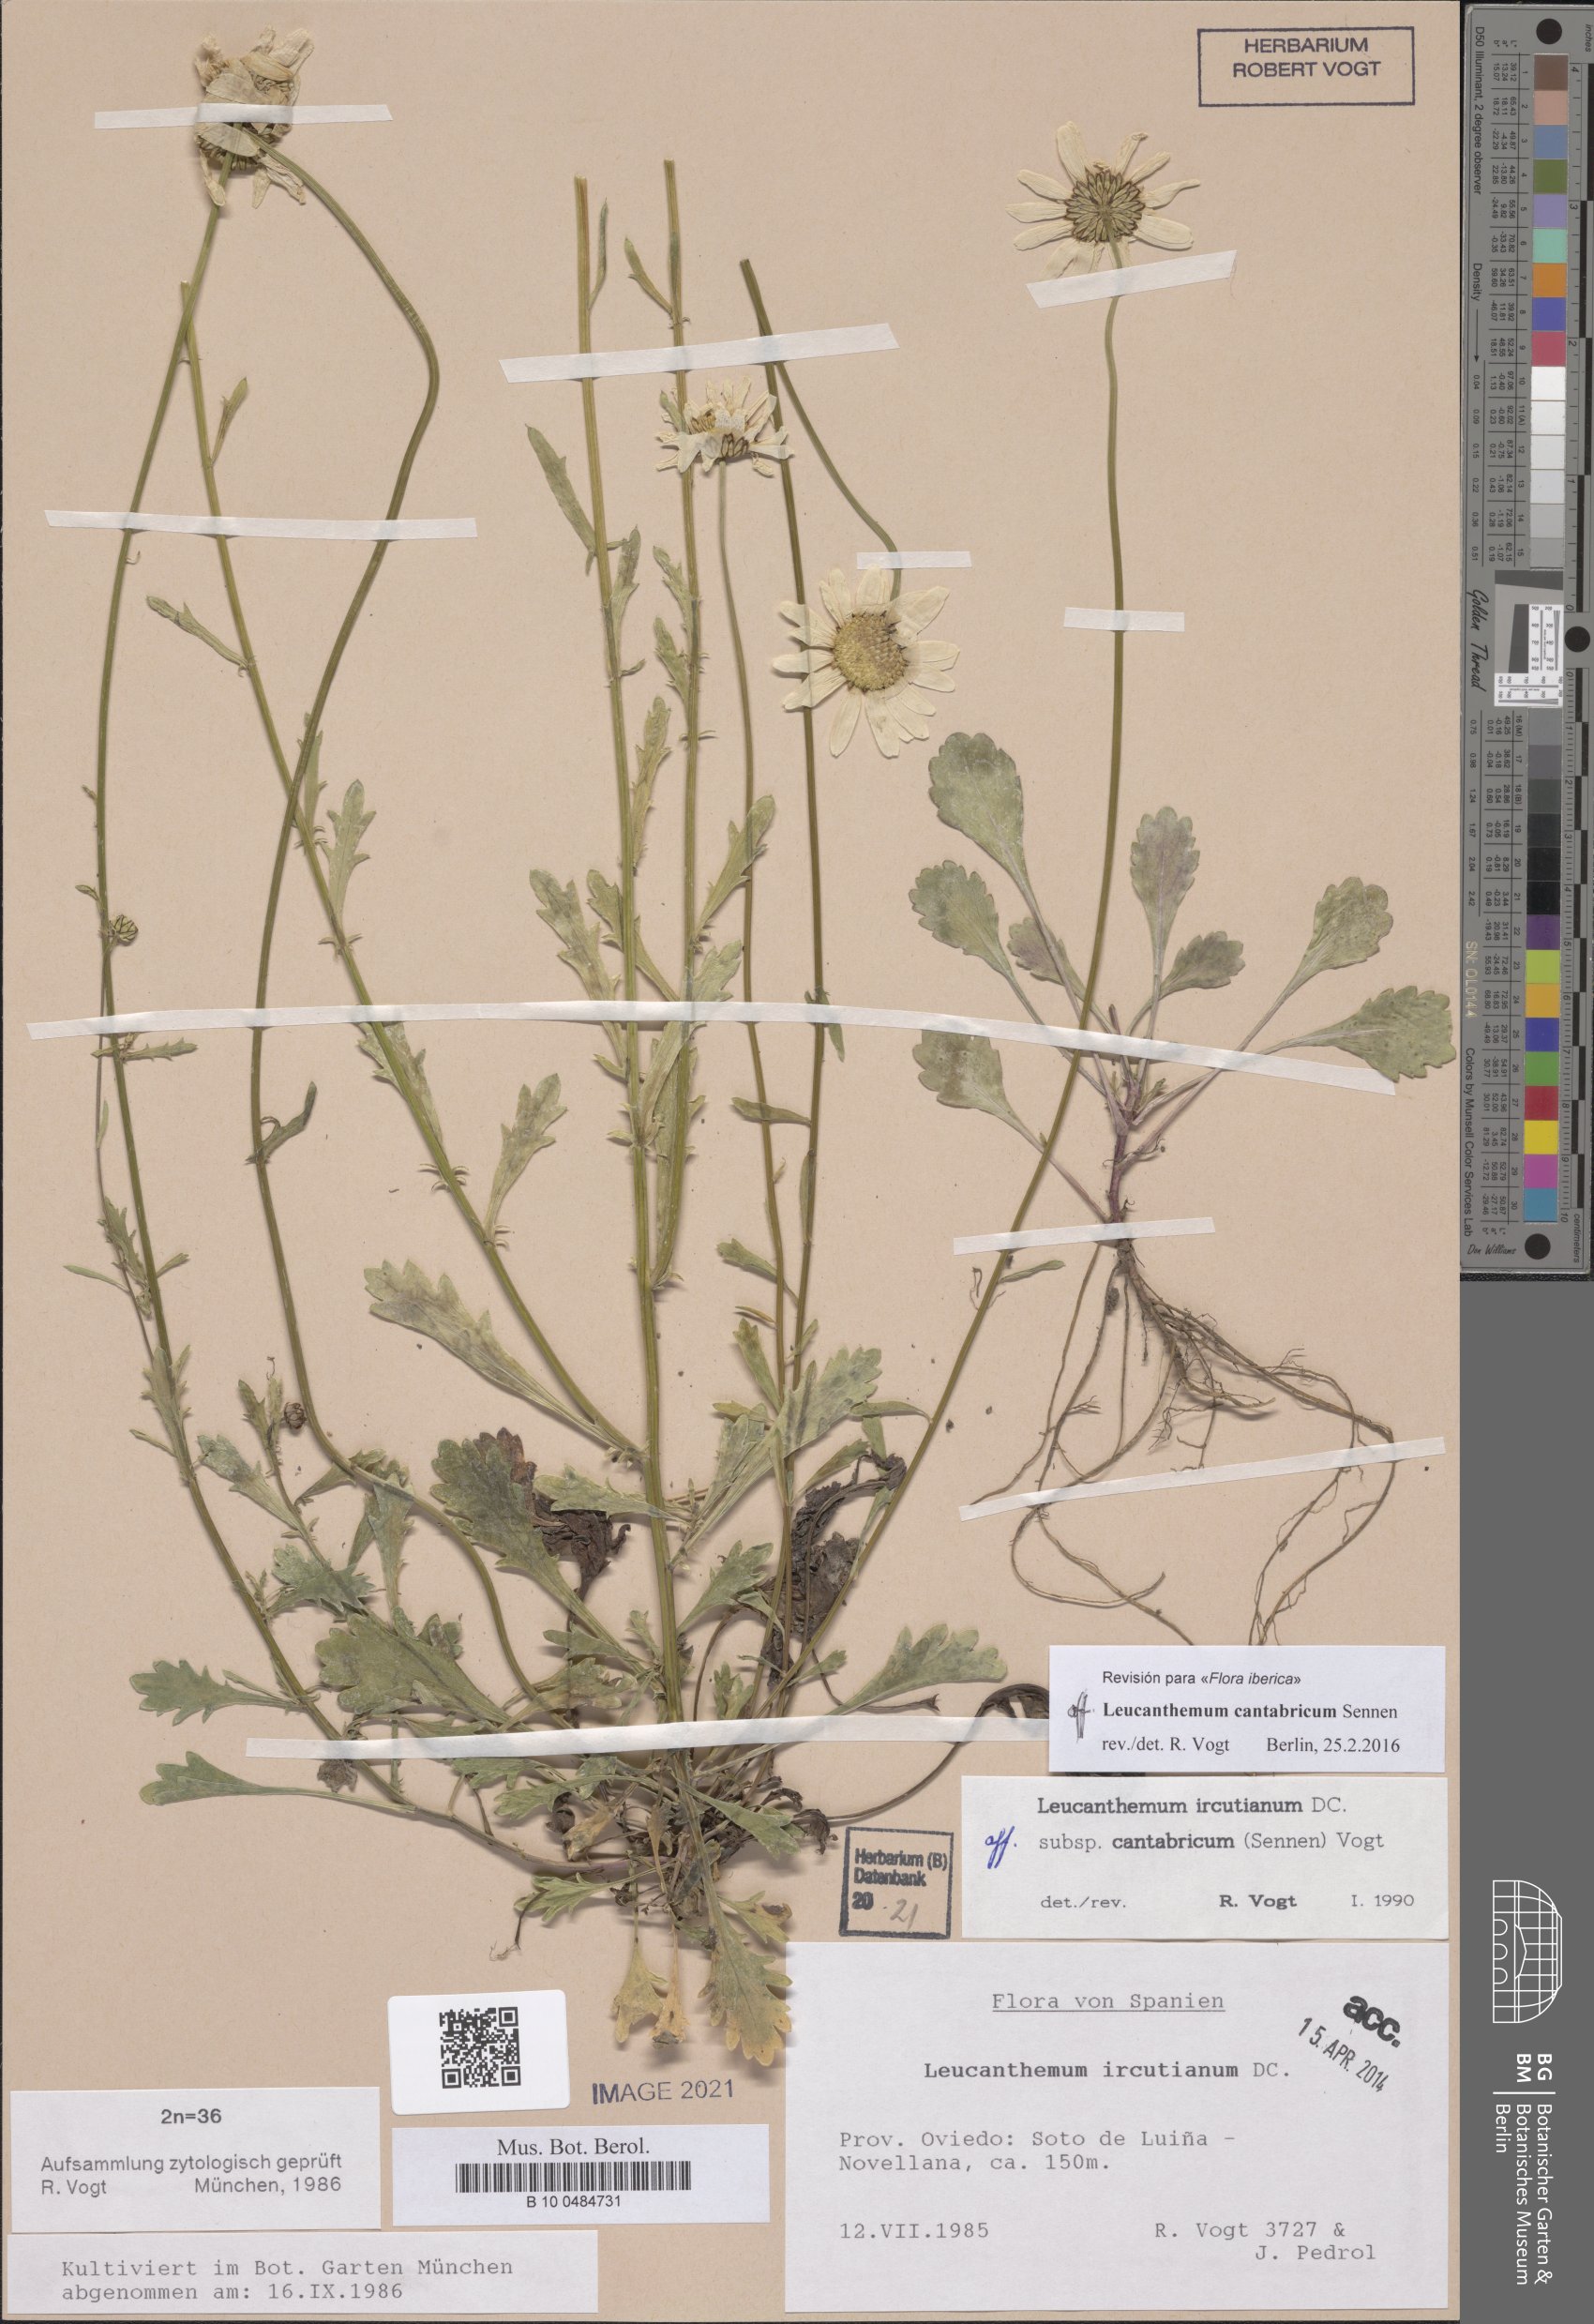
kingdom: Plantae
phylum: Tracheophyta
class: Magnoliopsida
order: Asterales
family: Asteraceae
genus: Leucanthemum
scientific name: Leucanthemum cantabricum
